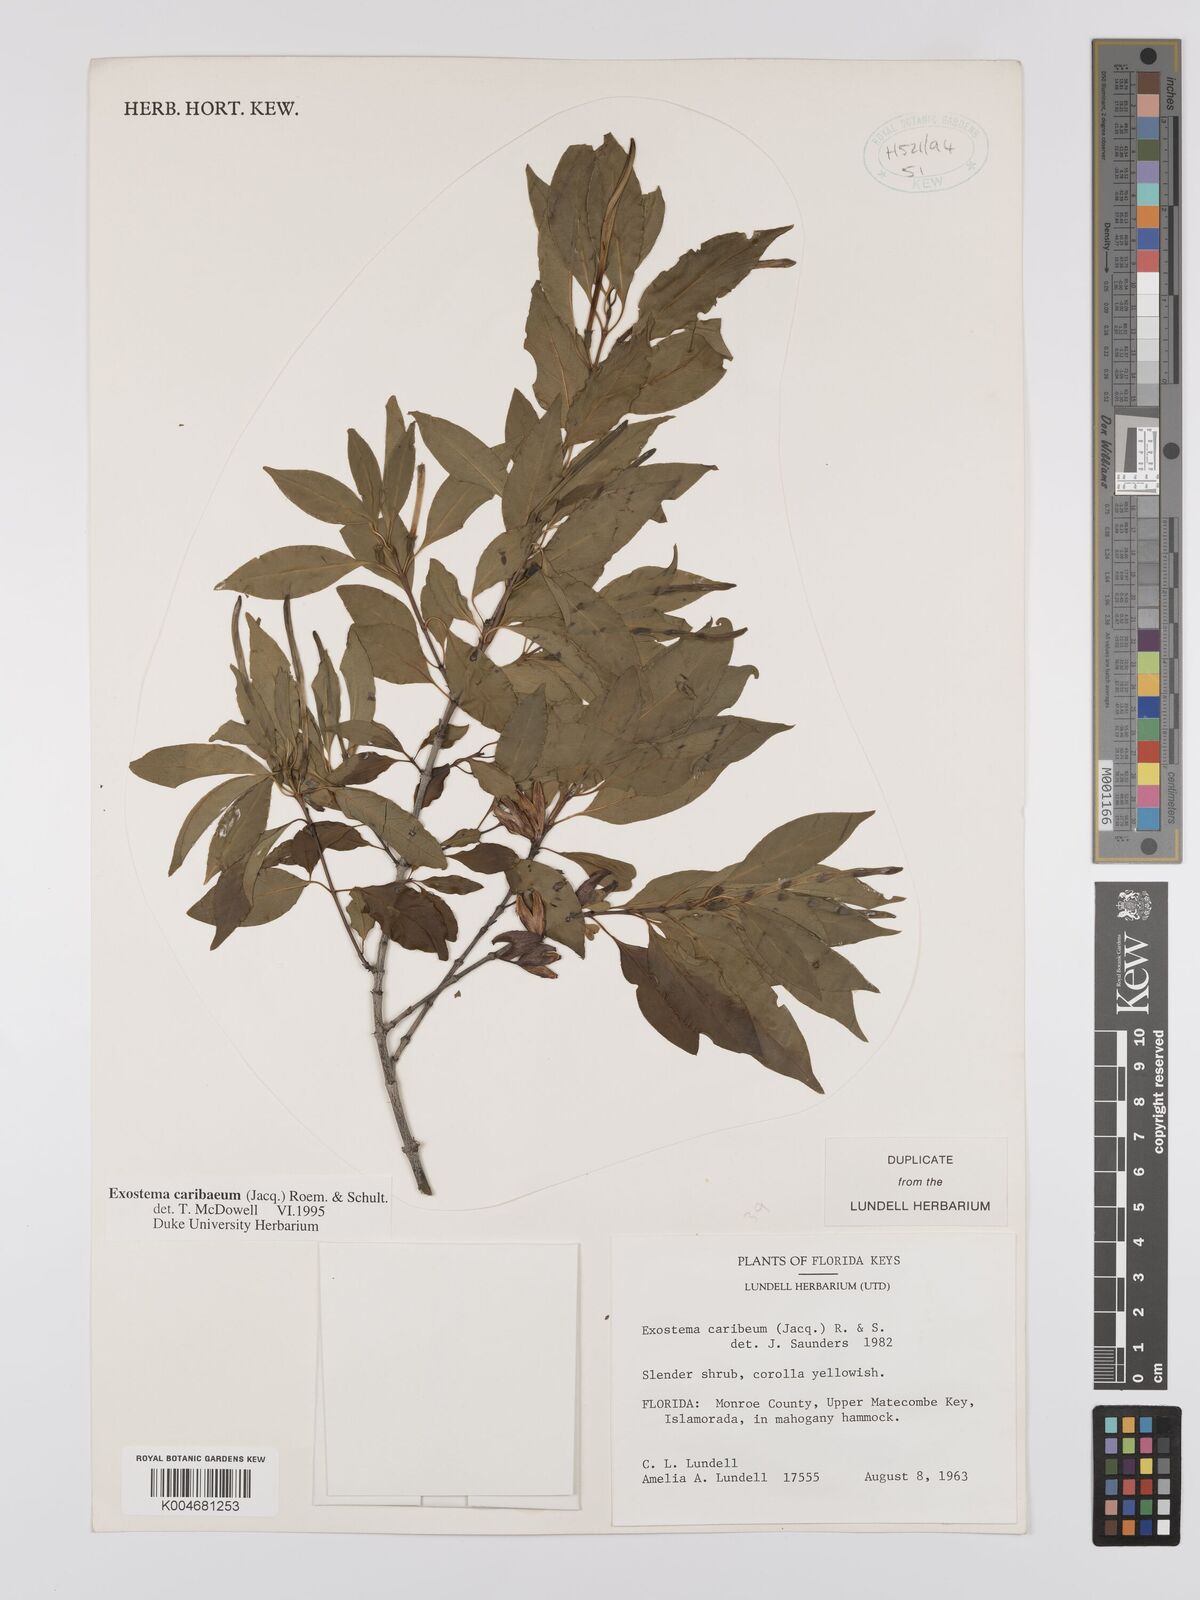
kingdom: Plantae
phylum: Tracheophyta
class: Magnoliopsida
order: Gentianales
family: Rubiaceae
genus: Exostema
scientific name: Exostema caribaeum
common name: Princewood
